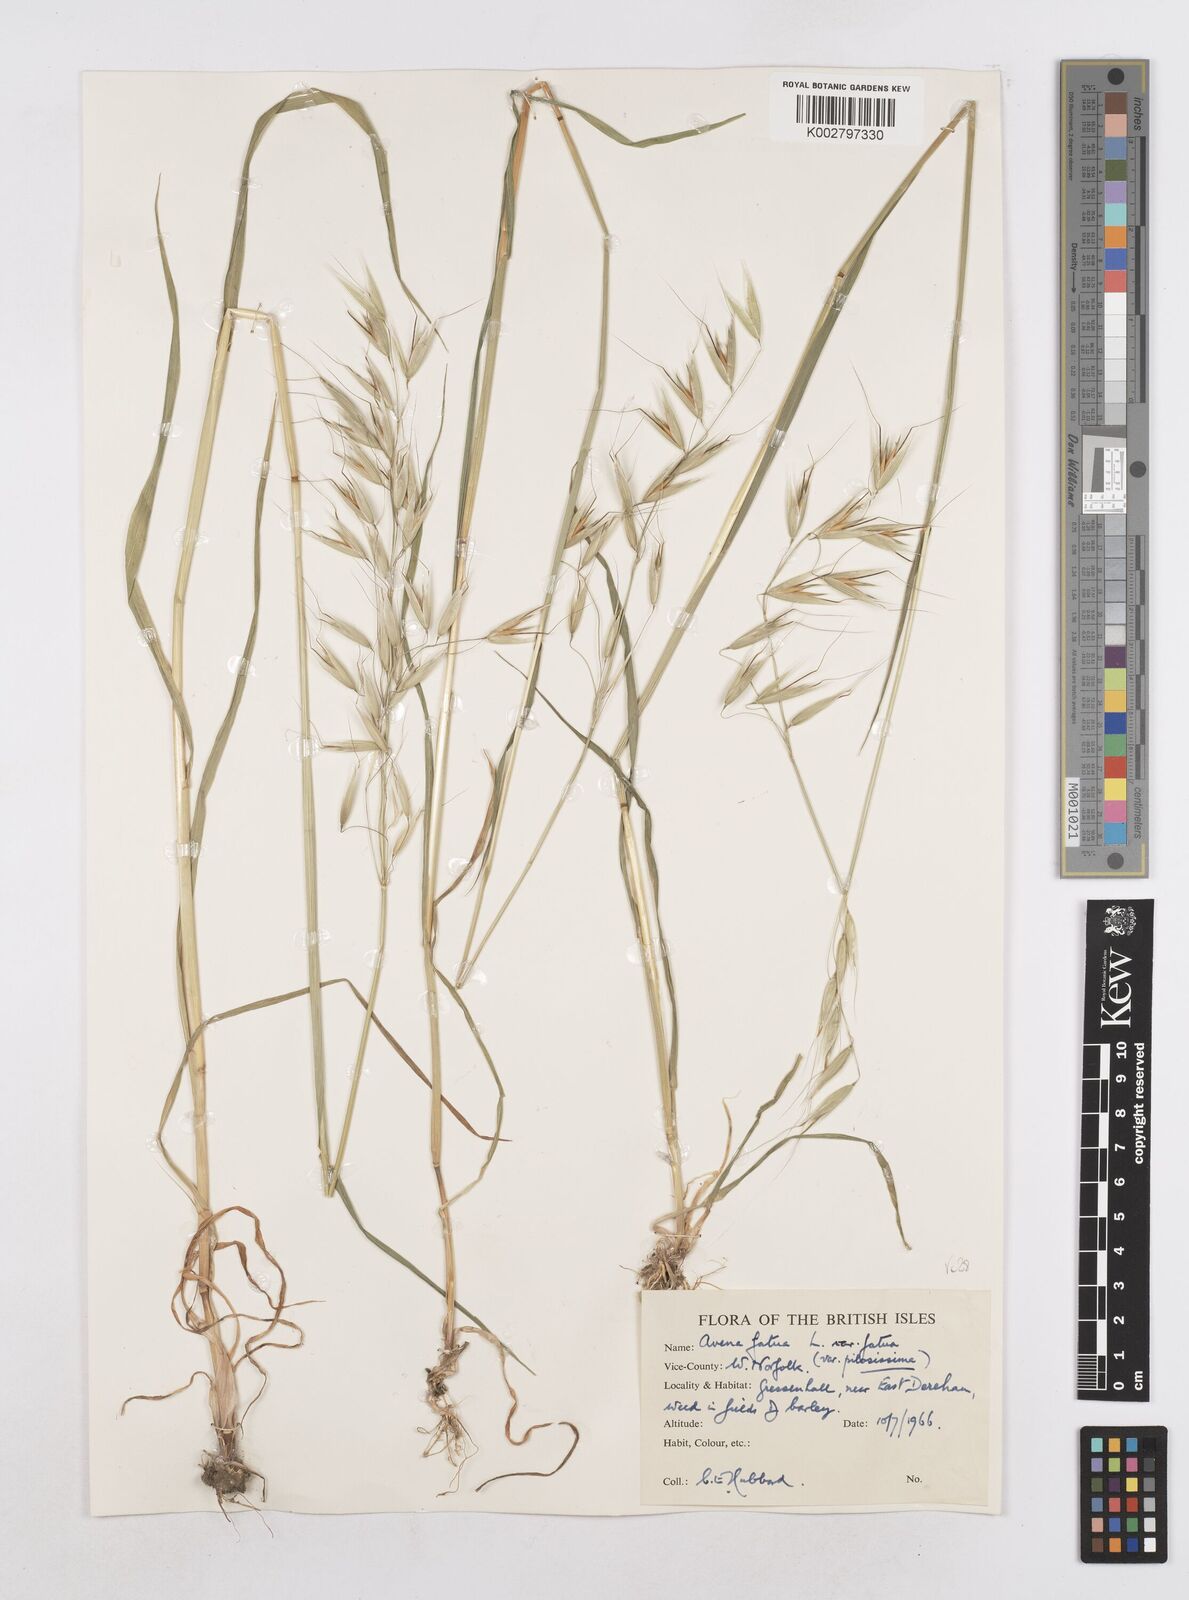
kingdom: Plantae
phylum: Tracheophyta
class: Liliopsida
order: Poales
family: Poaceae
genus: Avena
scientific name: Avena fatua
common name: Wild oat
